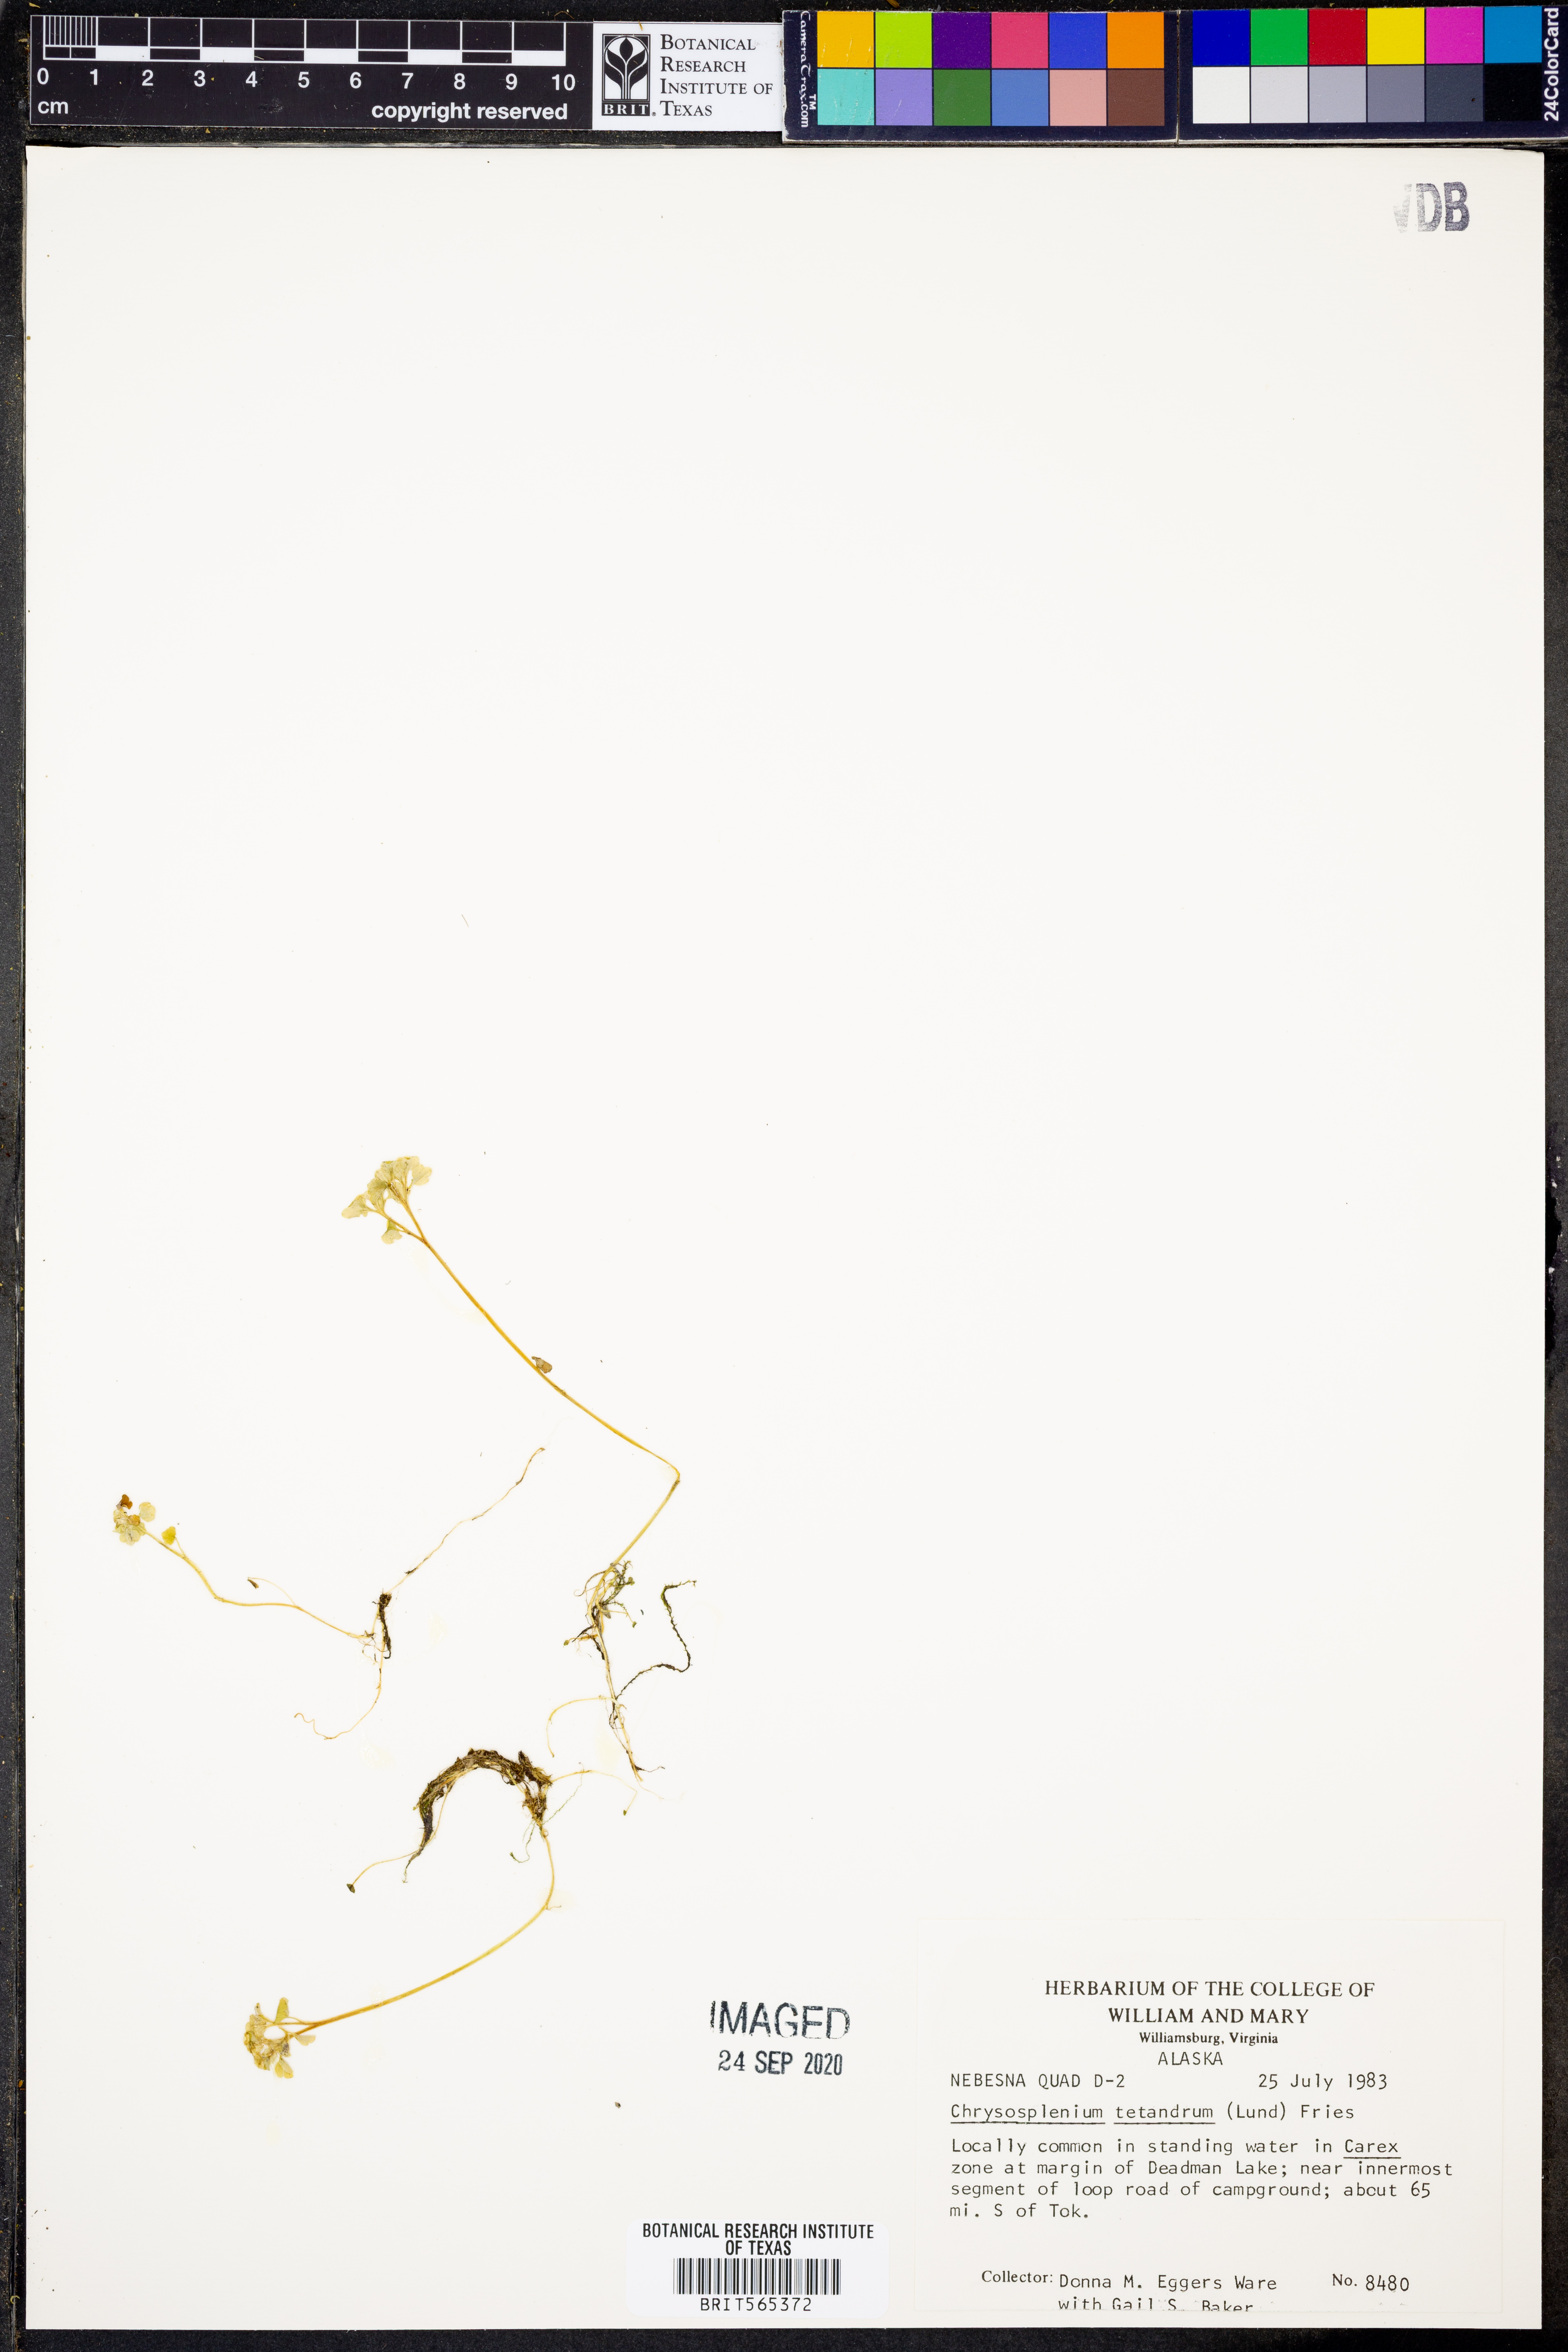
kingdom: Plantae
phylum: Tracheophyta
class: Magnoliopsida
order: Saxifragales
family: Saxifragaceae
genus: Chrysosplenium
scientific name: Chrysosplenium tetrandrum
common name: Green saxifrage
